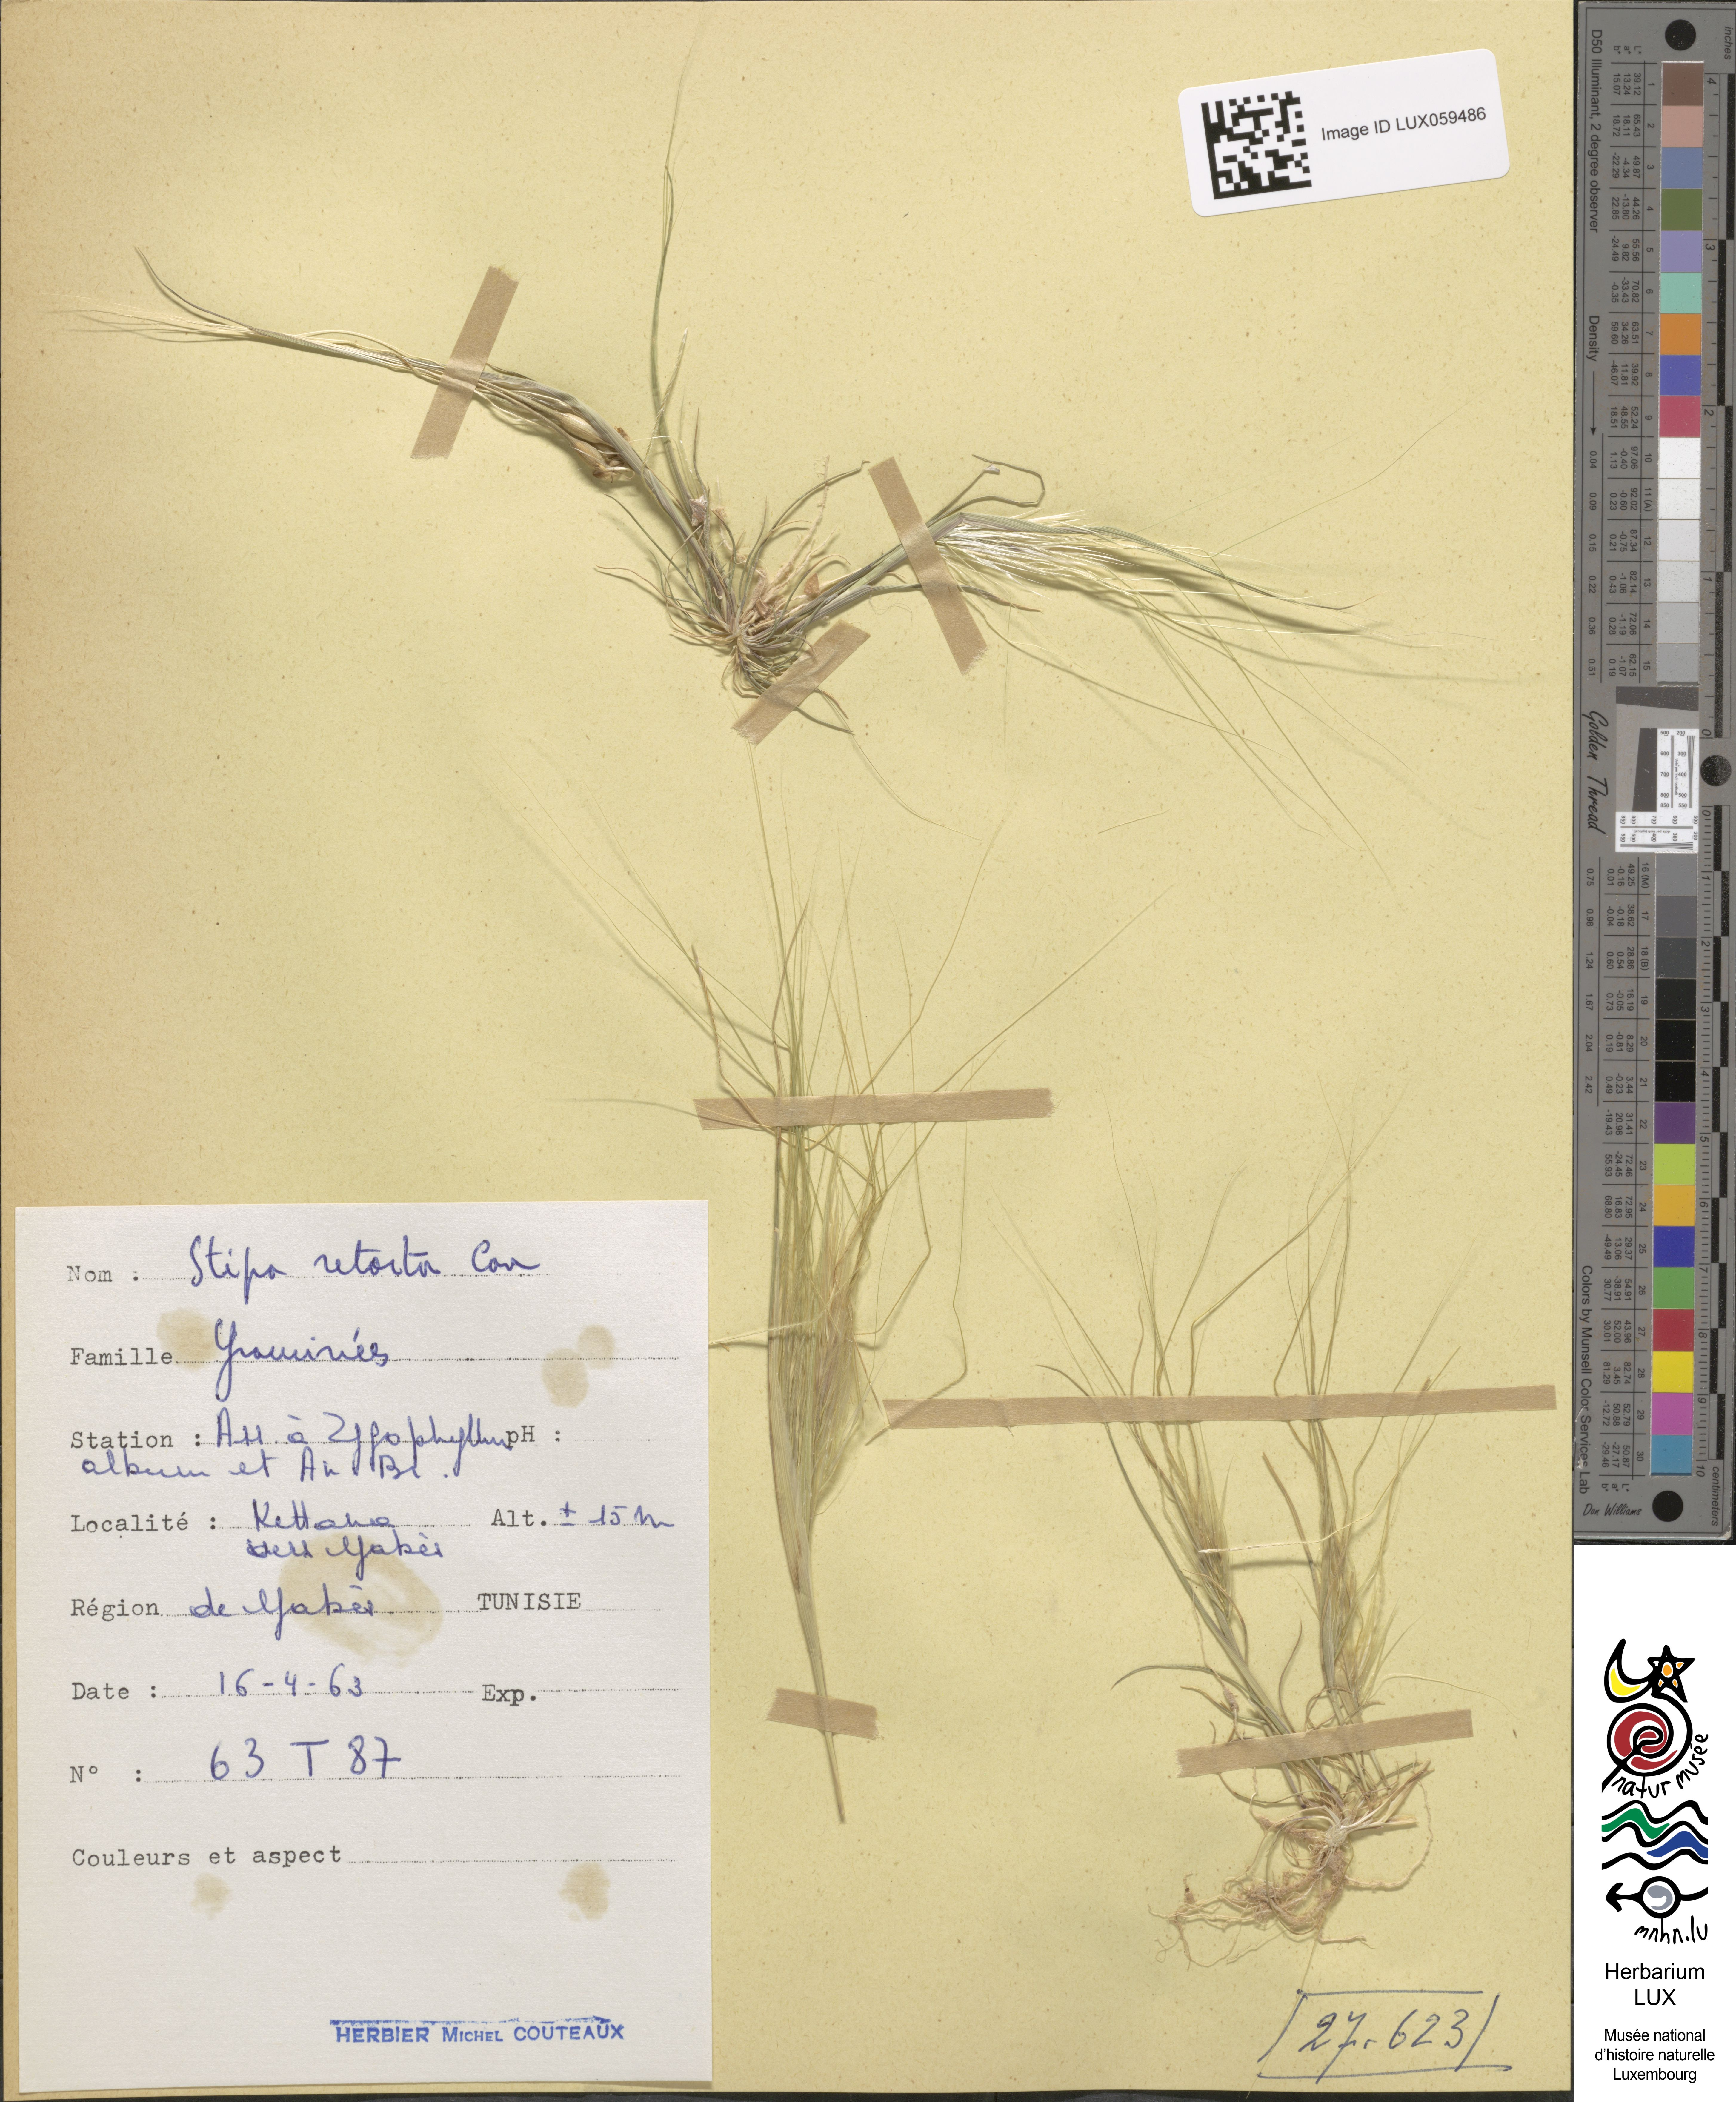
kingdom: Plantae
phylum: Tracheophyta
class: Liliopsida
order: Poales
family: Poaceae
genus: Stipellula
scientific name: Stipellula capensis
